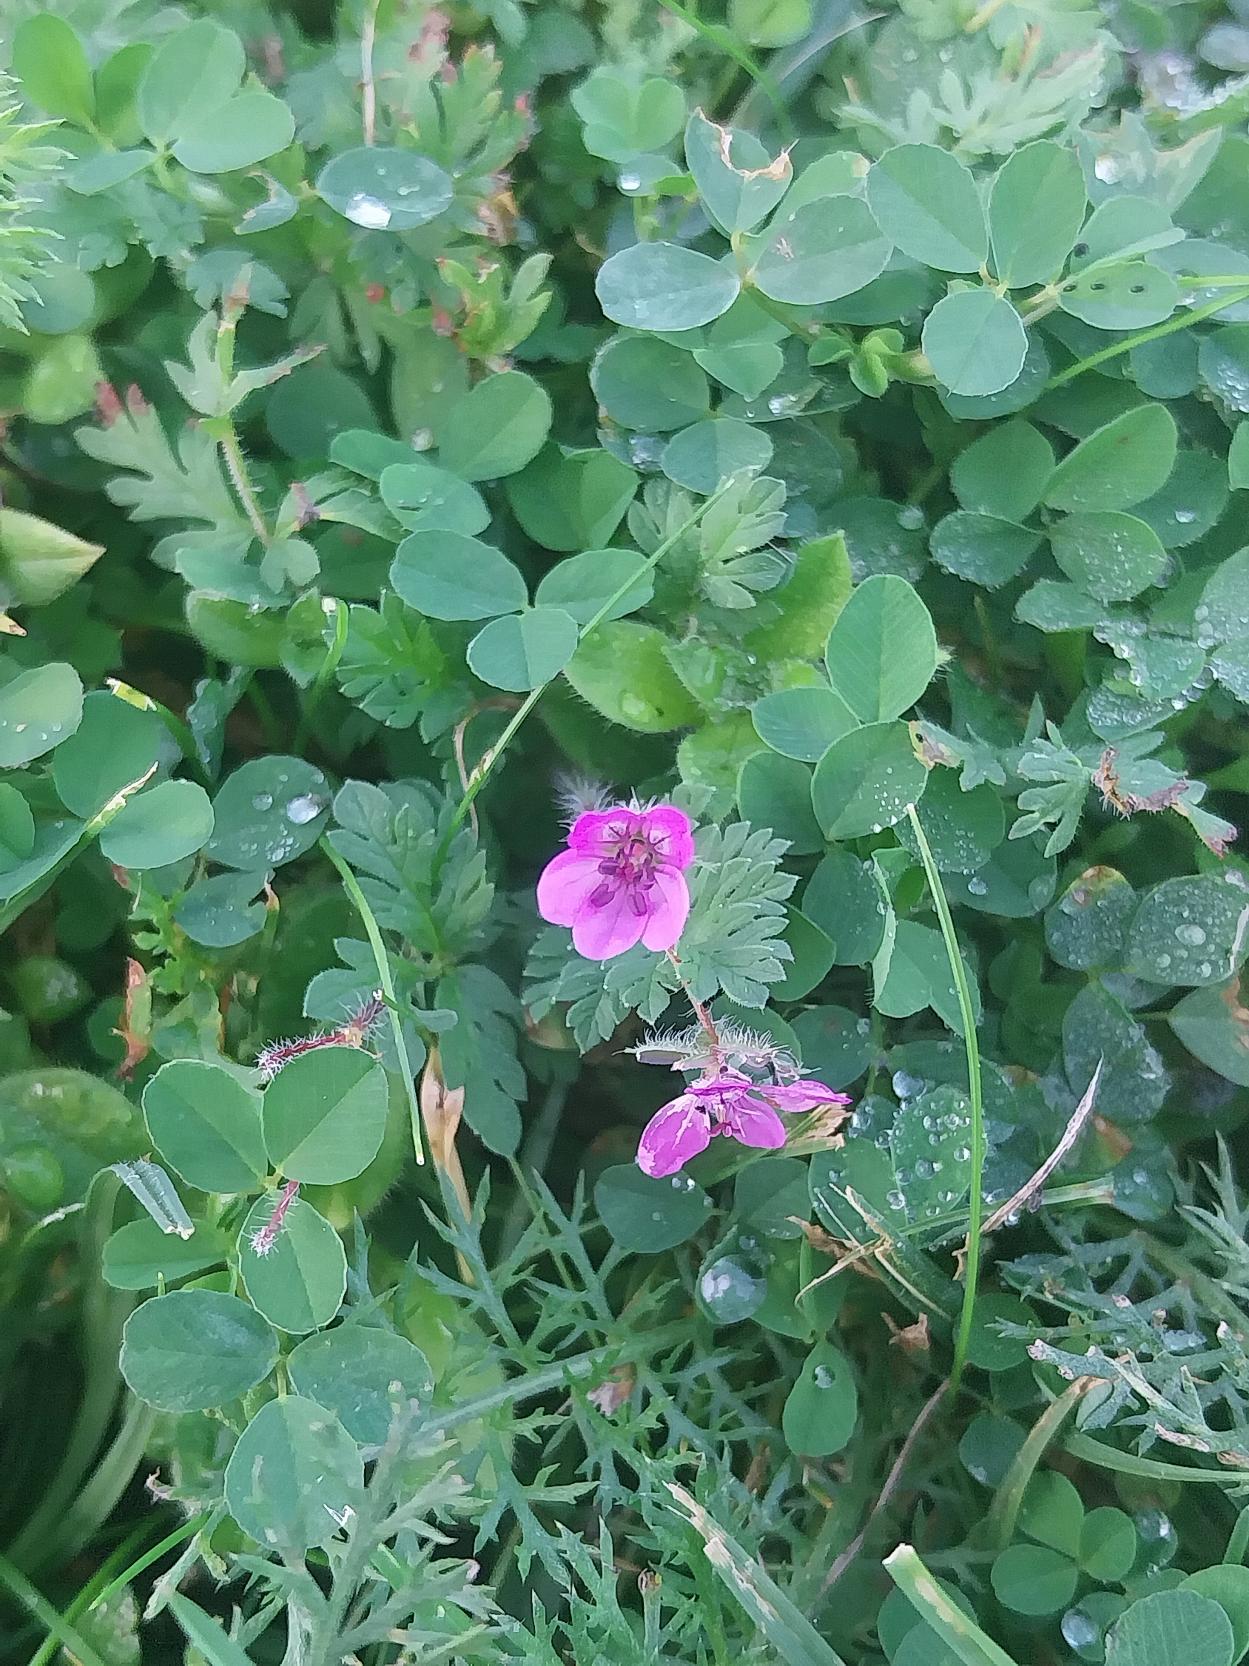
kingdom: Plantae
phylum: Tracheophyta
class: Magnoliopsida
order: Geraniales
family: Geraniaceae
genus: Erodium
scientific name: Erodium cicutarium
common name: Hejrenæb
